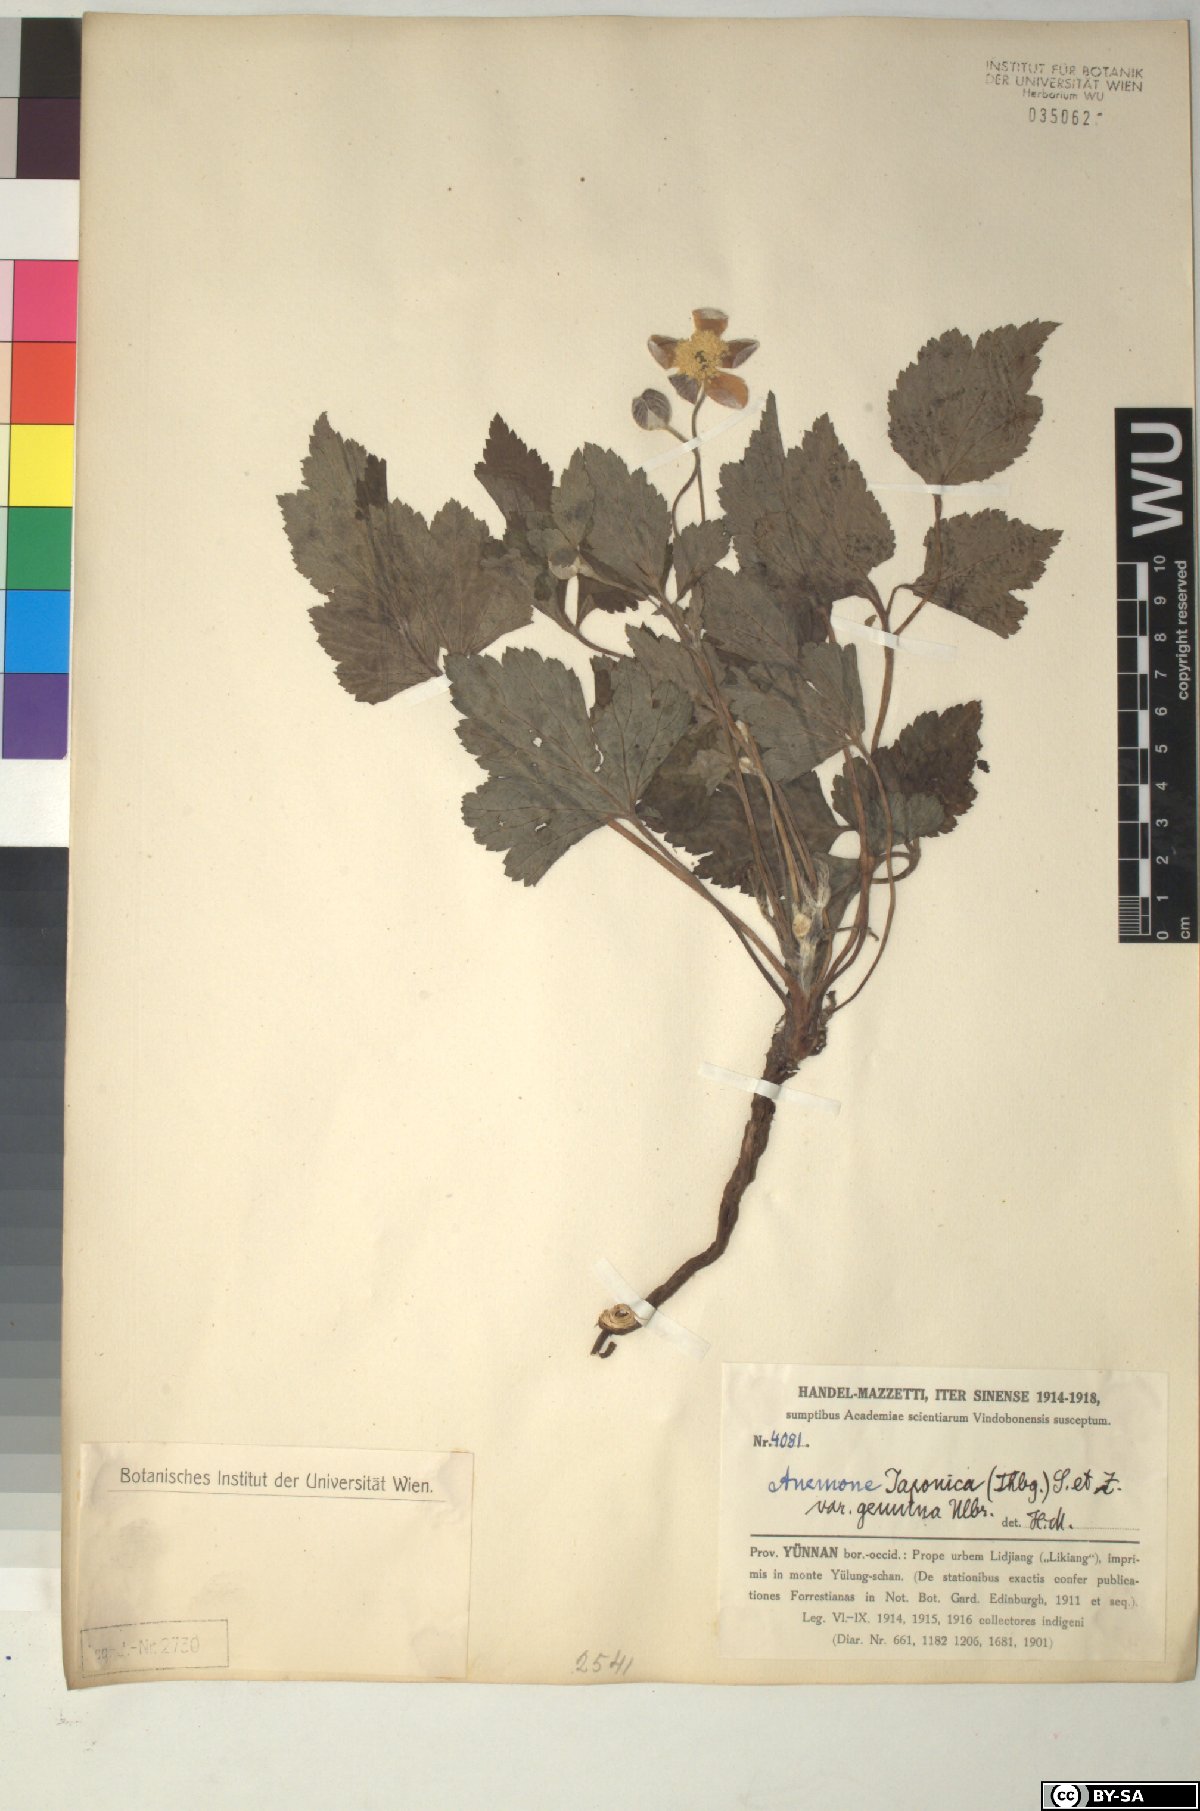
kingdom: Plantae
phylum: Tracheophyta
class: Magnoliopsida
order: Ranunculales
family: Ranunculaceae
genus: Eriocapitella
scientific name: Eriocapitella japonica
